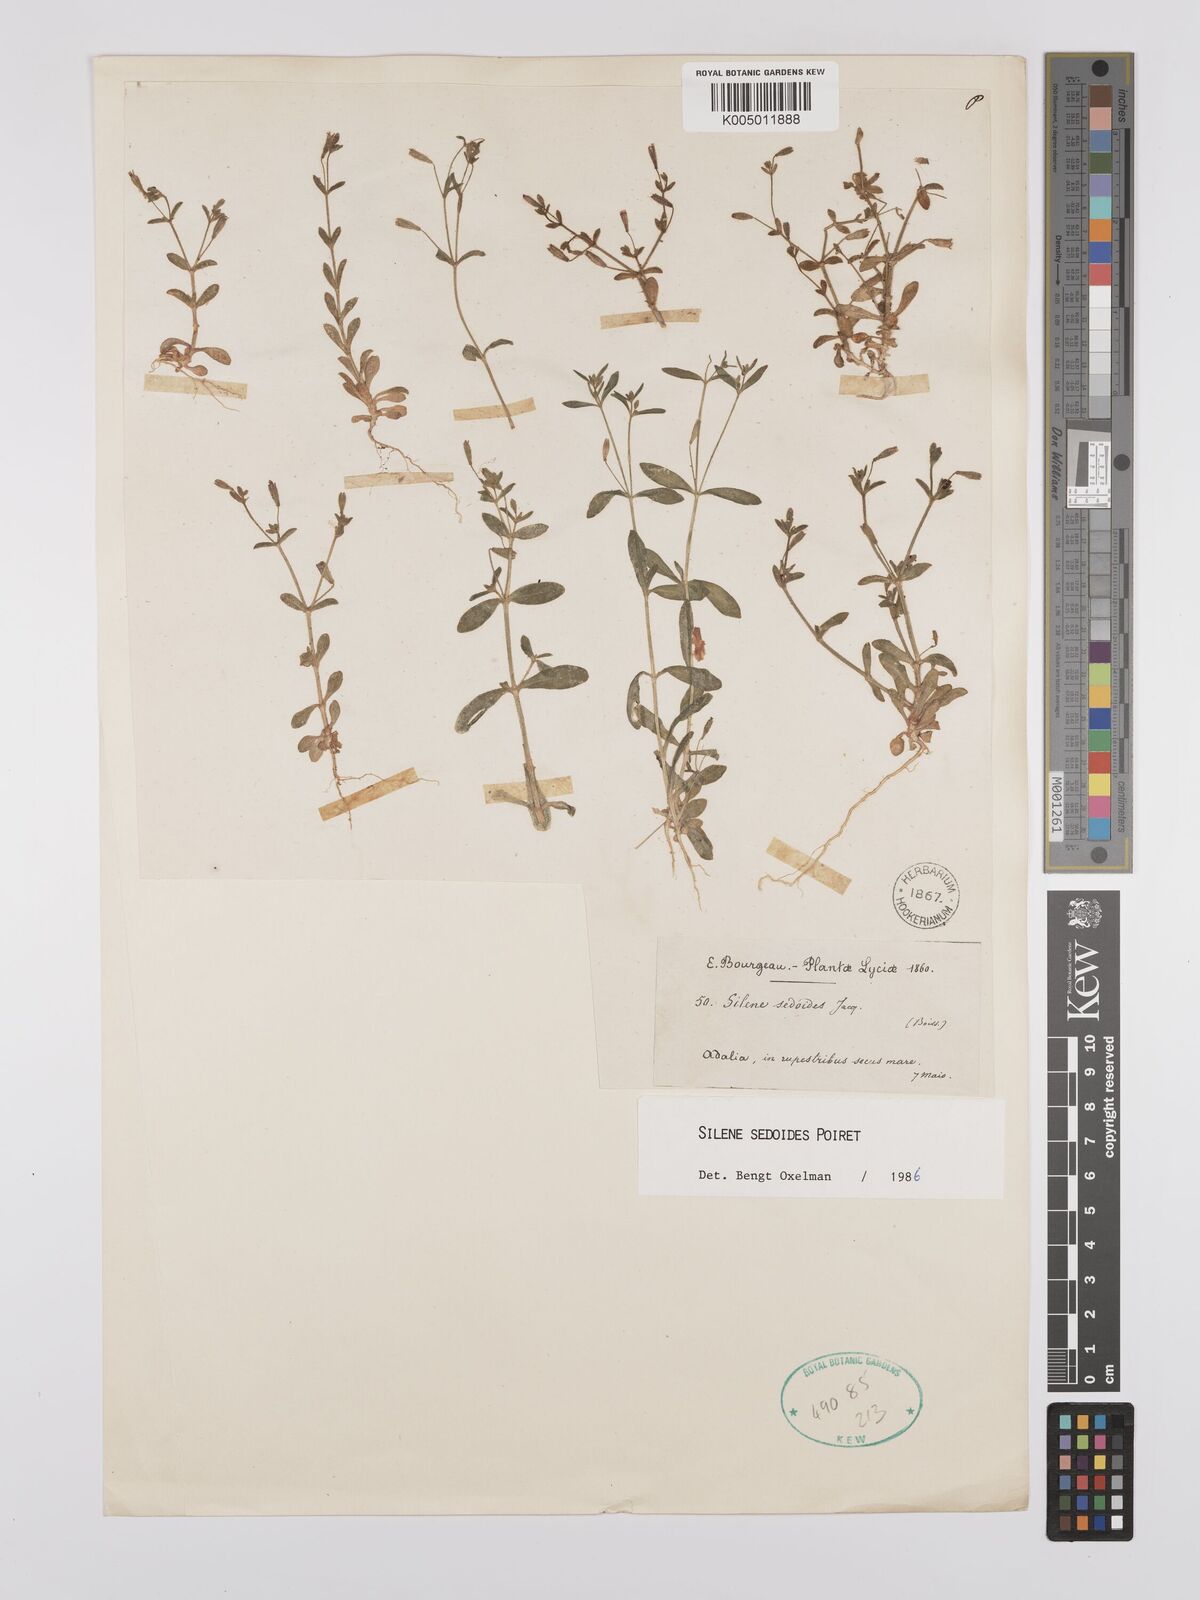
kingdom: Plantae
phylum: Tracheophyta
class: Magnoliopsida
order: Caryophyllales
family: Caryophyllaceae
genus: Silene
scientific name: Silene sedoides
